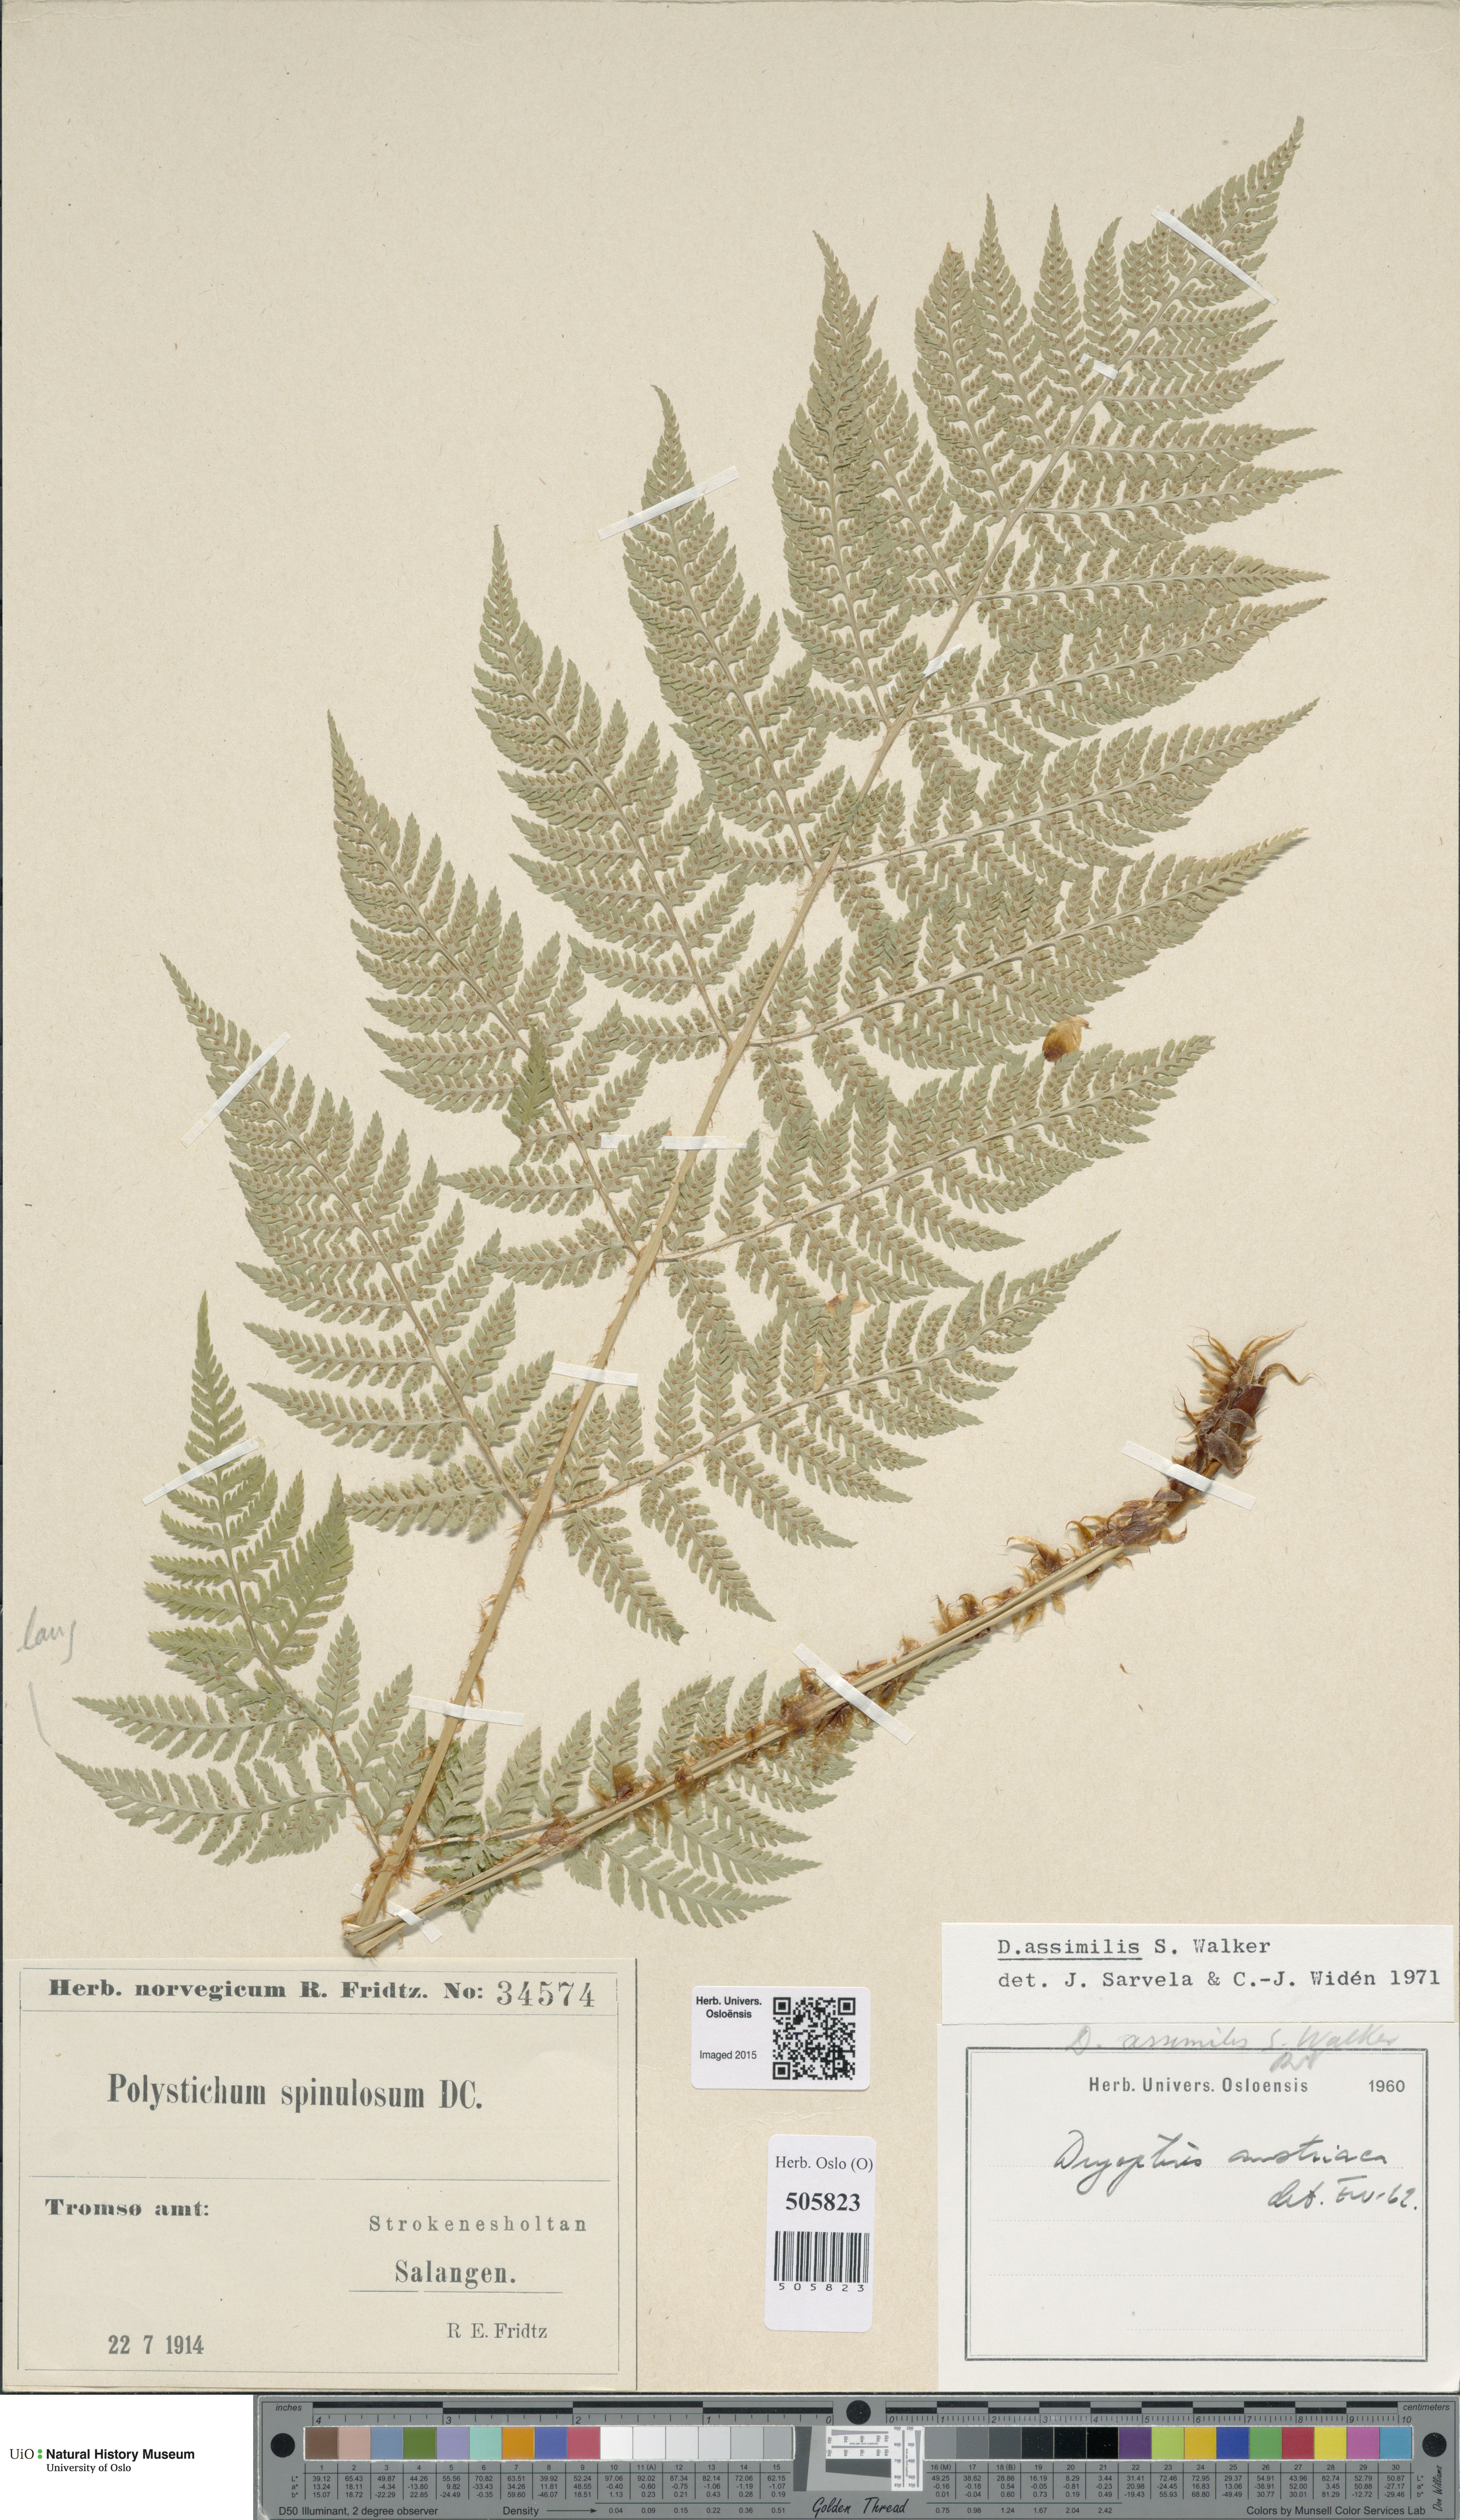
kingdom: Plantae
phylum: Tracheophyta
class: Polypodiopsida
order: Polypodiales
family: Dryopteridaceae
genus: Dryopteris
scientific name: Dryopteris expansa
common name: Northern buckler fern
